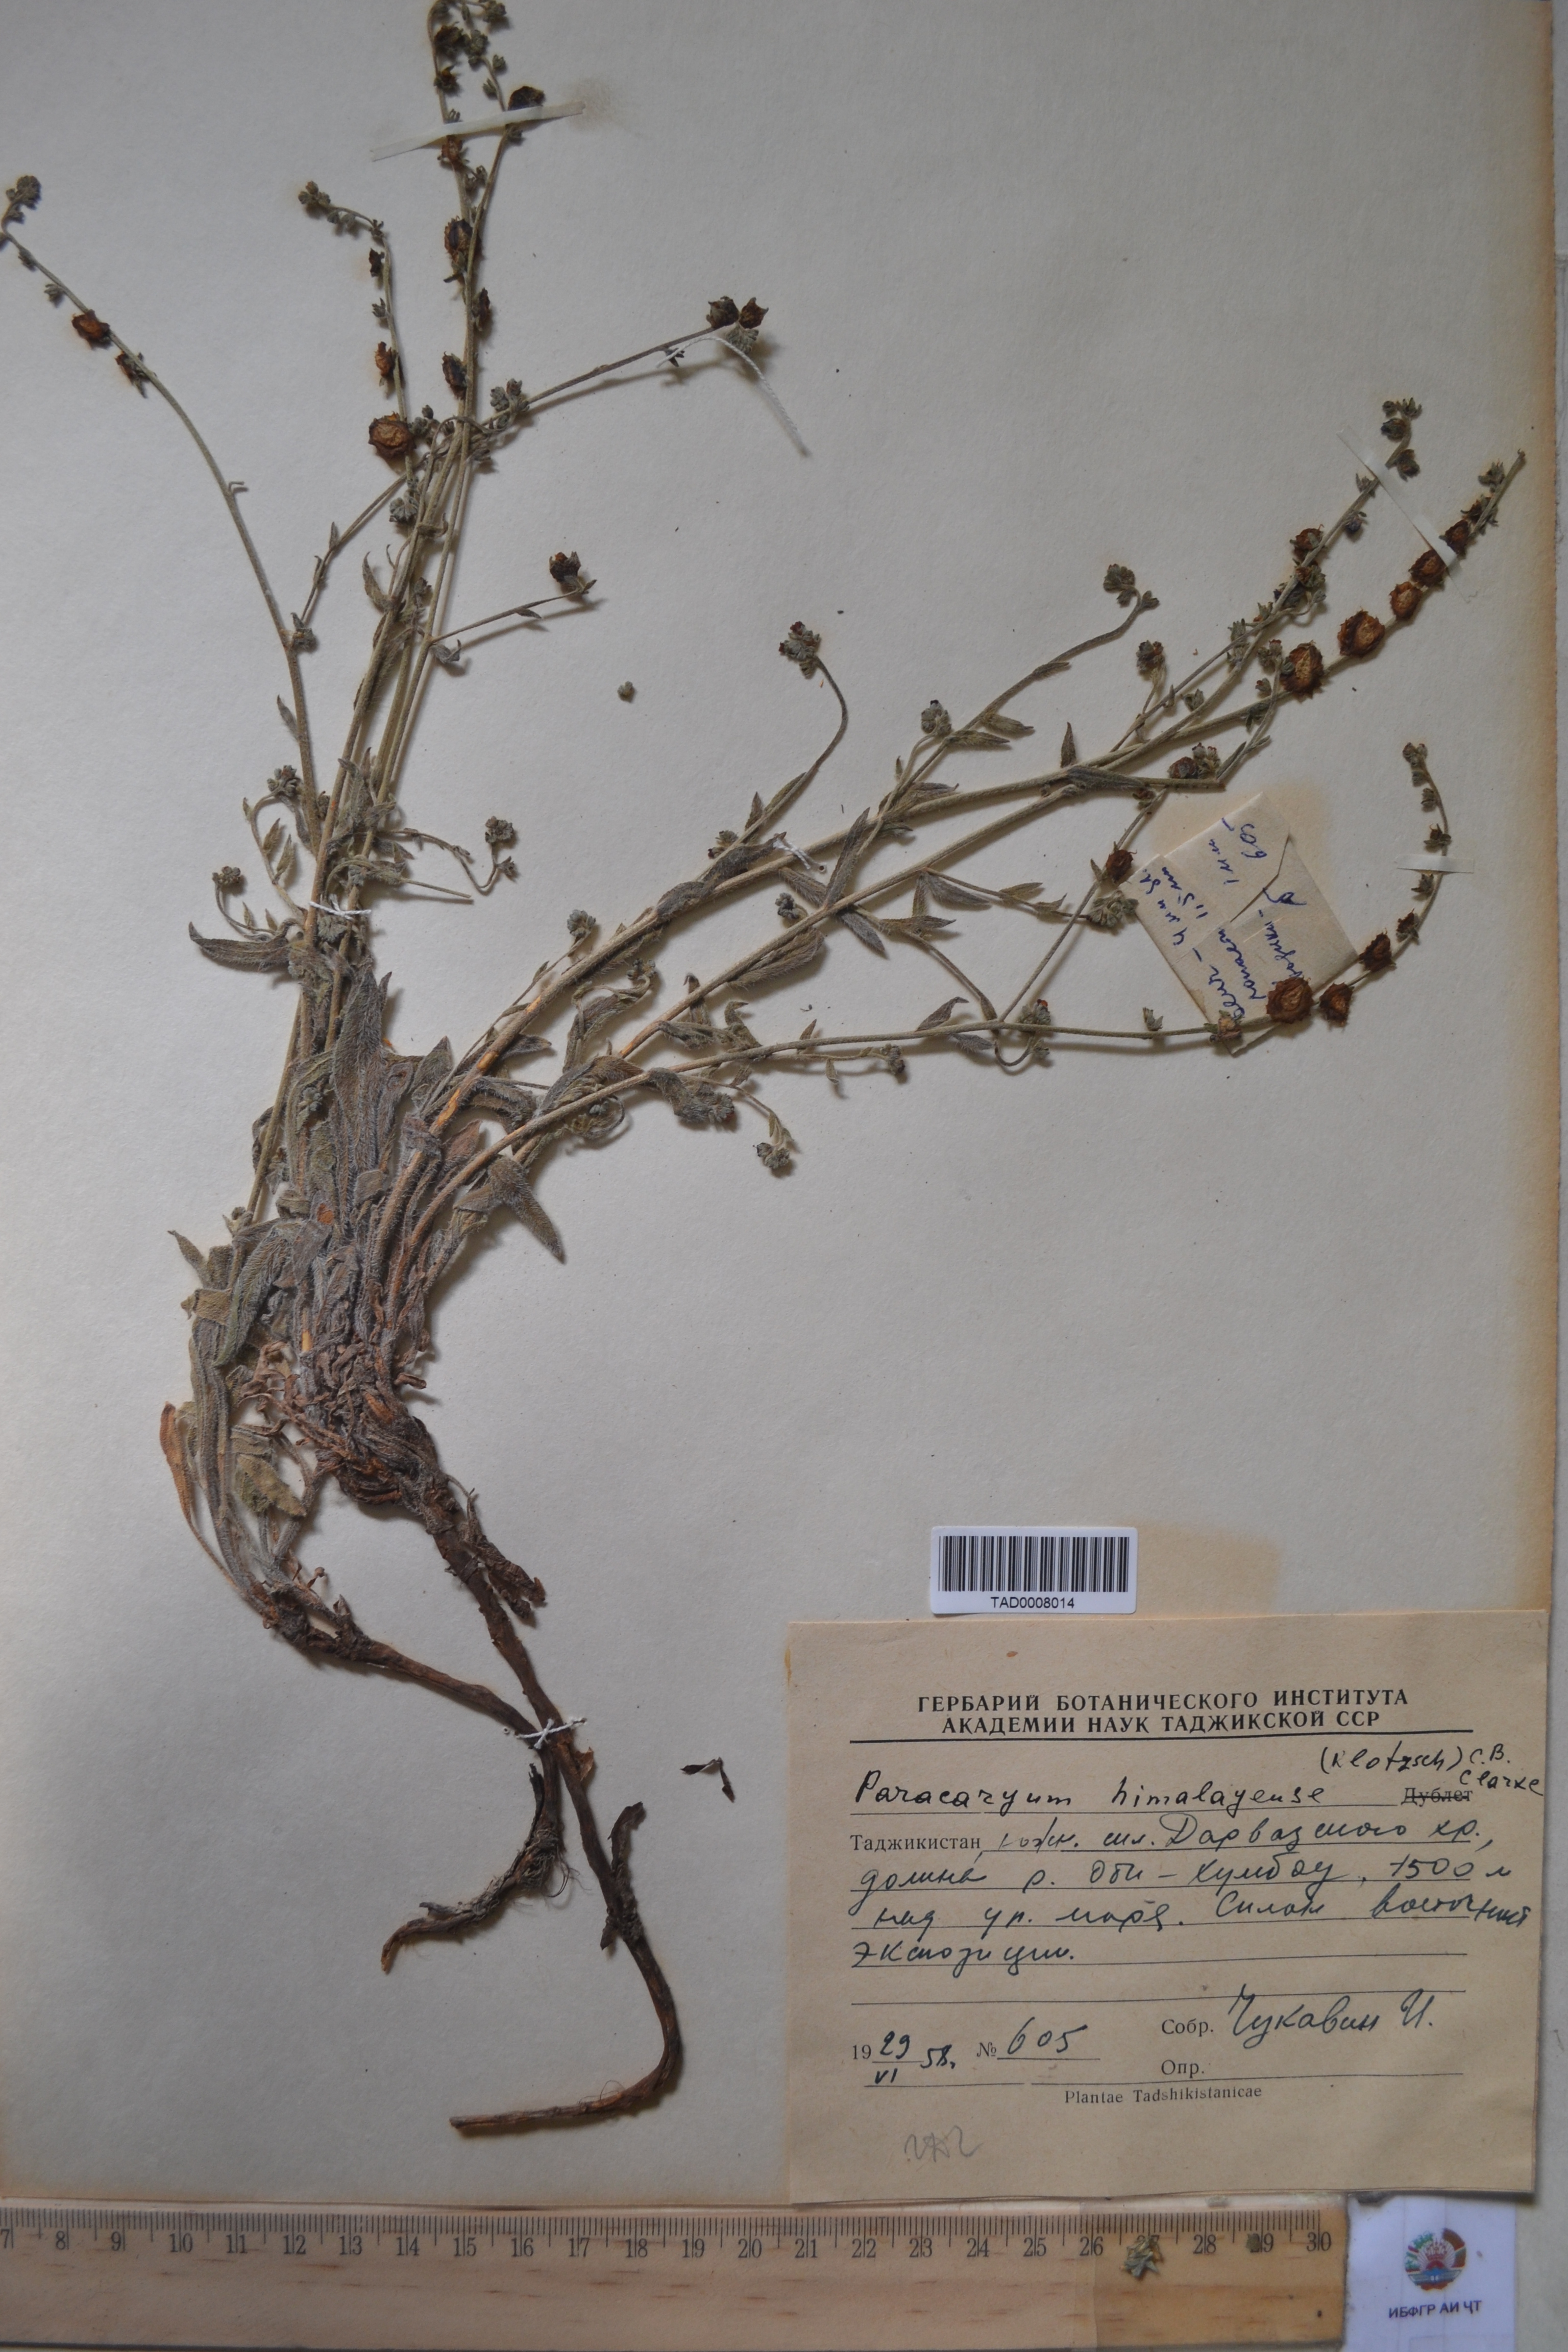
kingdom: Plantae
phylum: Tracheophyta
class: Magnoliopsida
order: Boraginales
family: Boraginaceae
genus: Paracaryum
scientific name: Paracaryum himalayense
